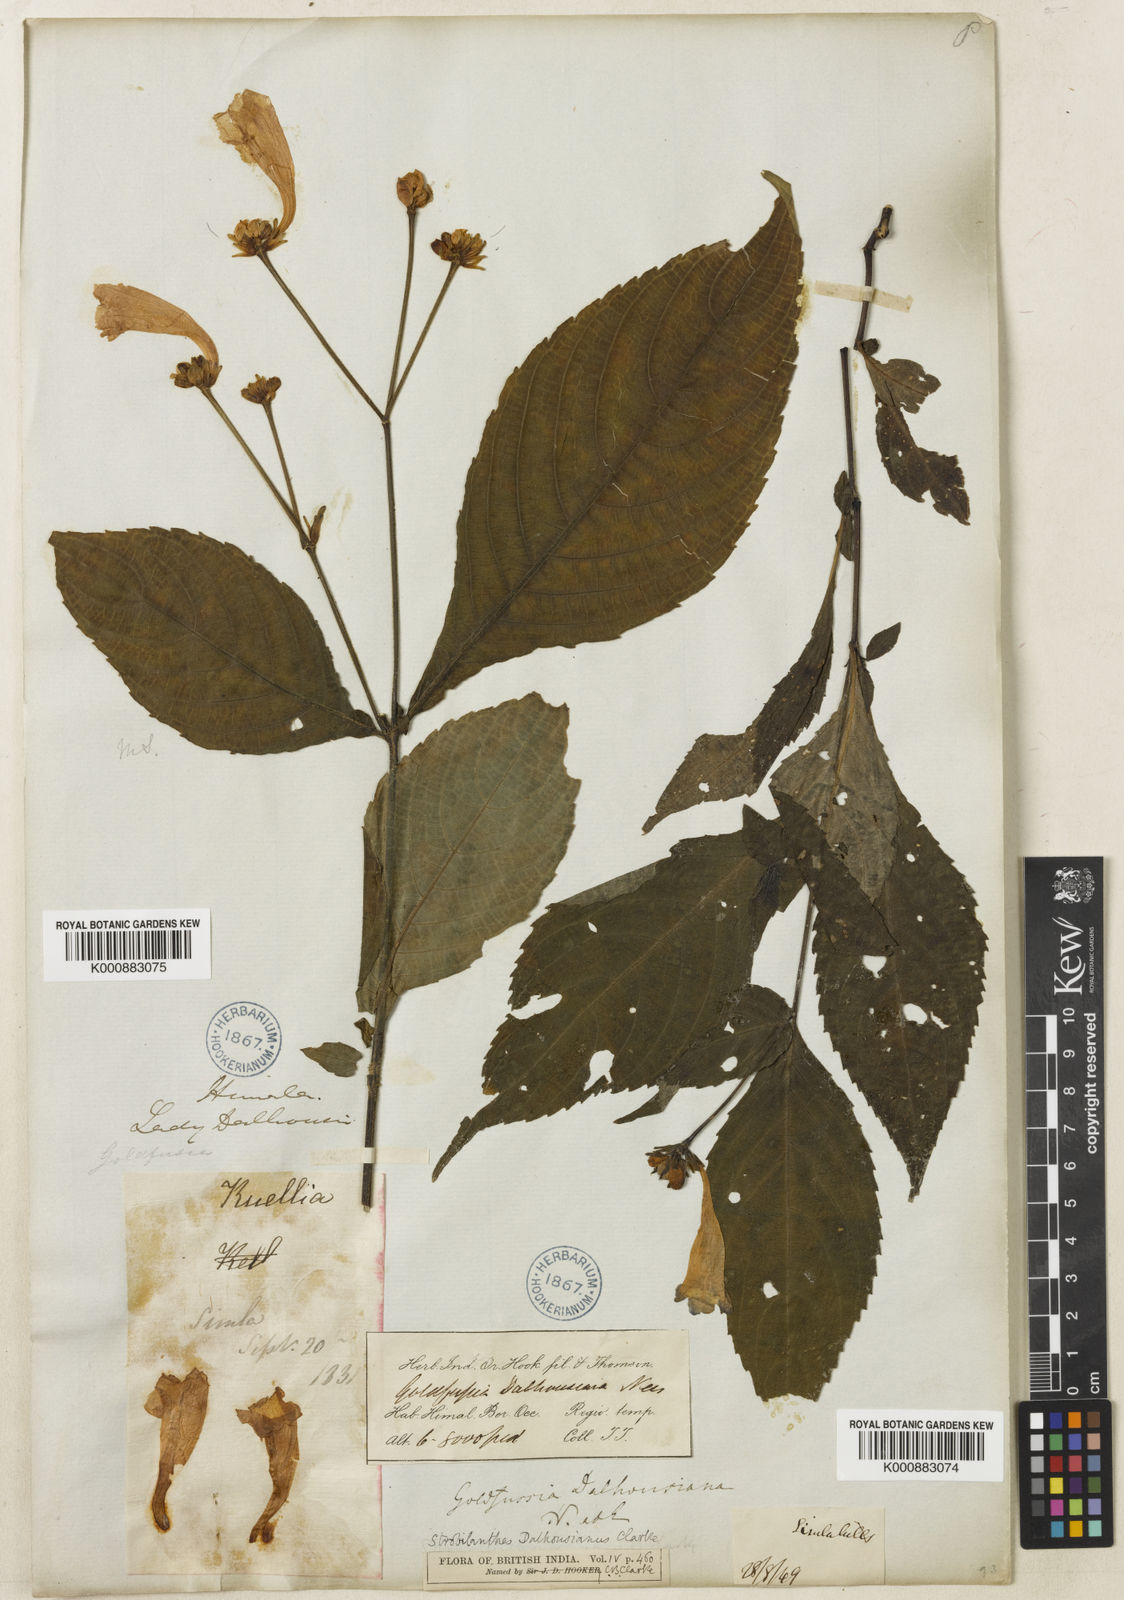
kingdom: Plantae
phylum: Tracheophyta
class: Magnoliopsida
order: Lamiales
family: Acanthaceae
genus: Strobilanthes
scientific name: Strobilanthes
